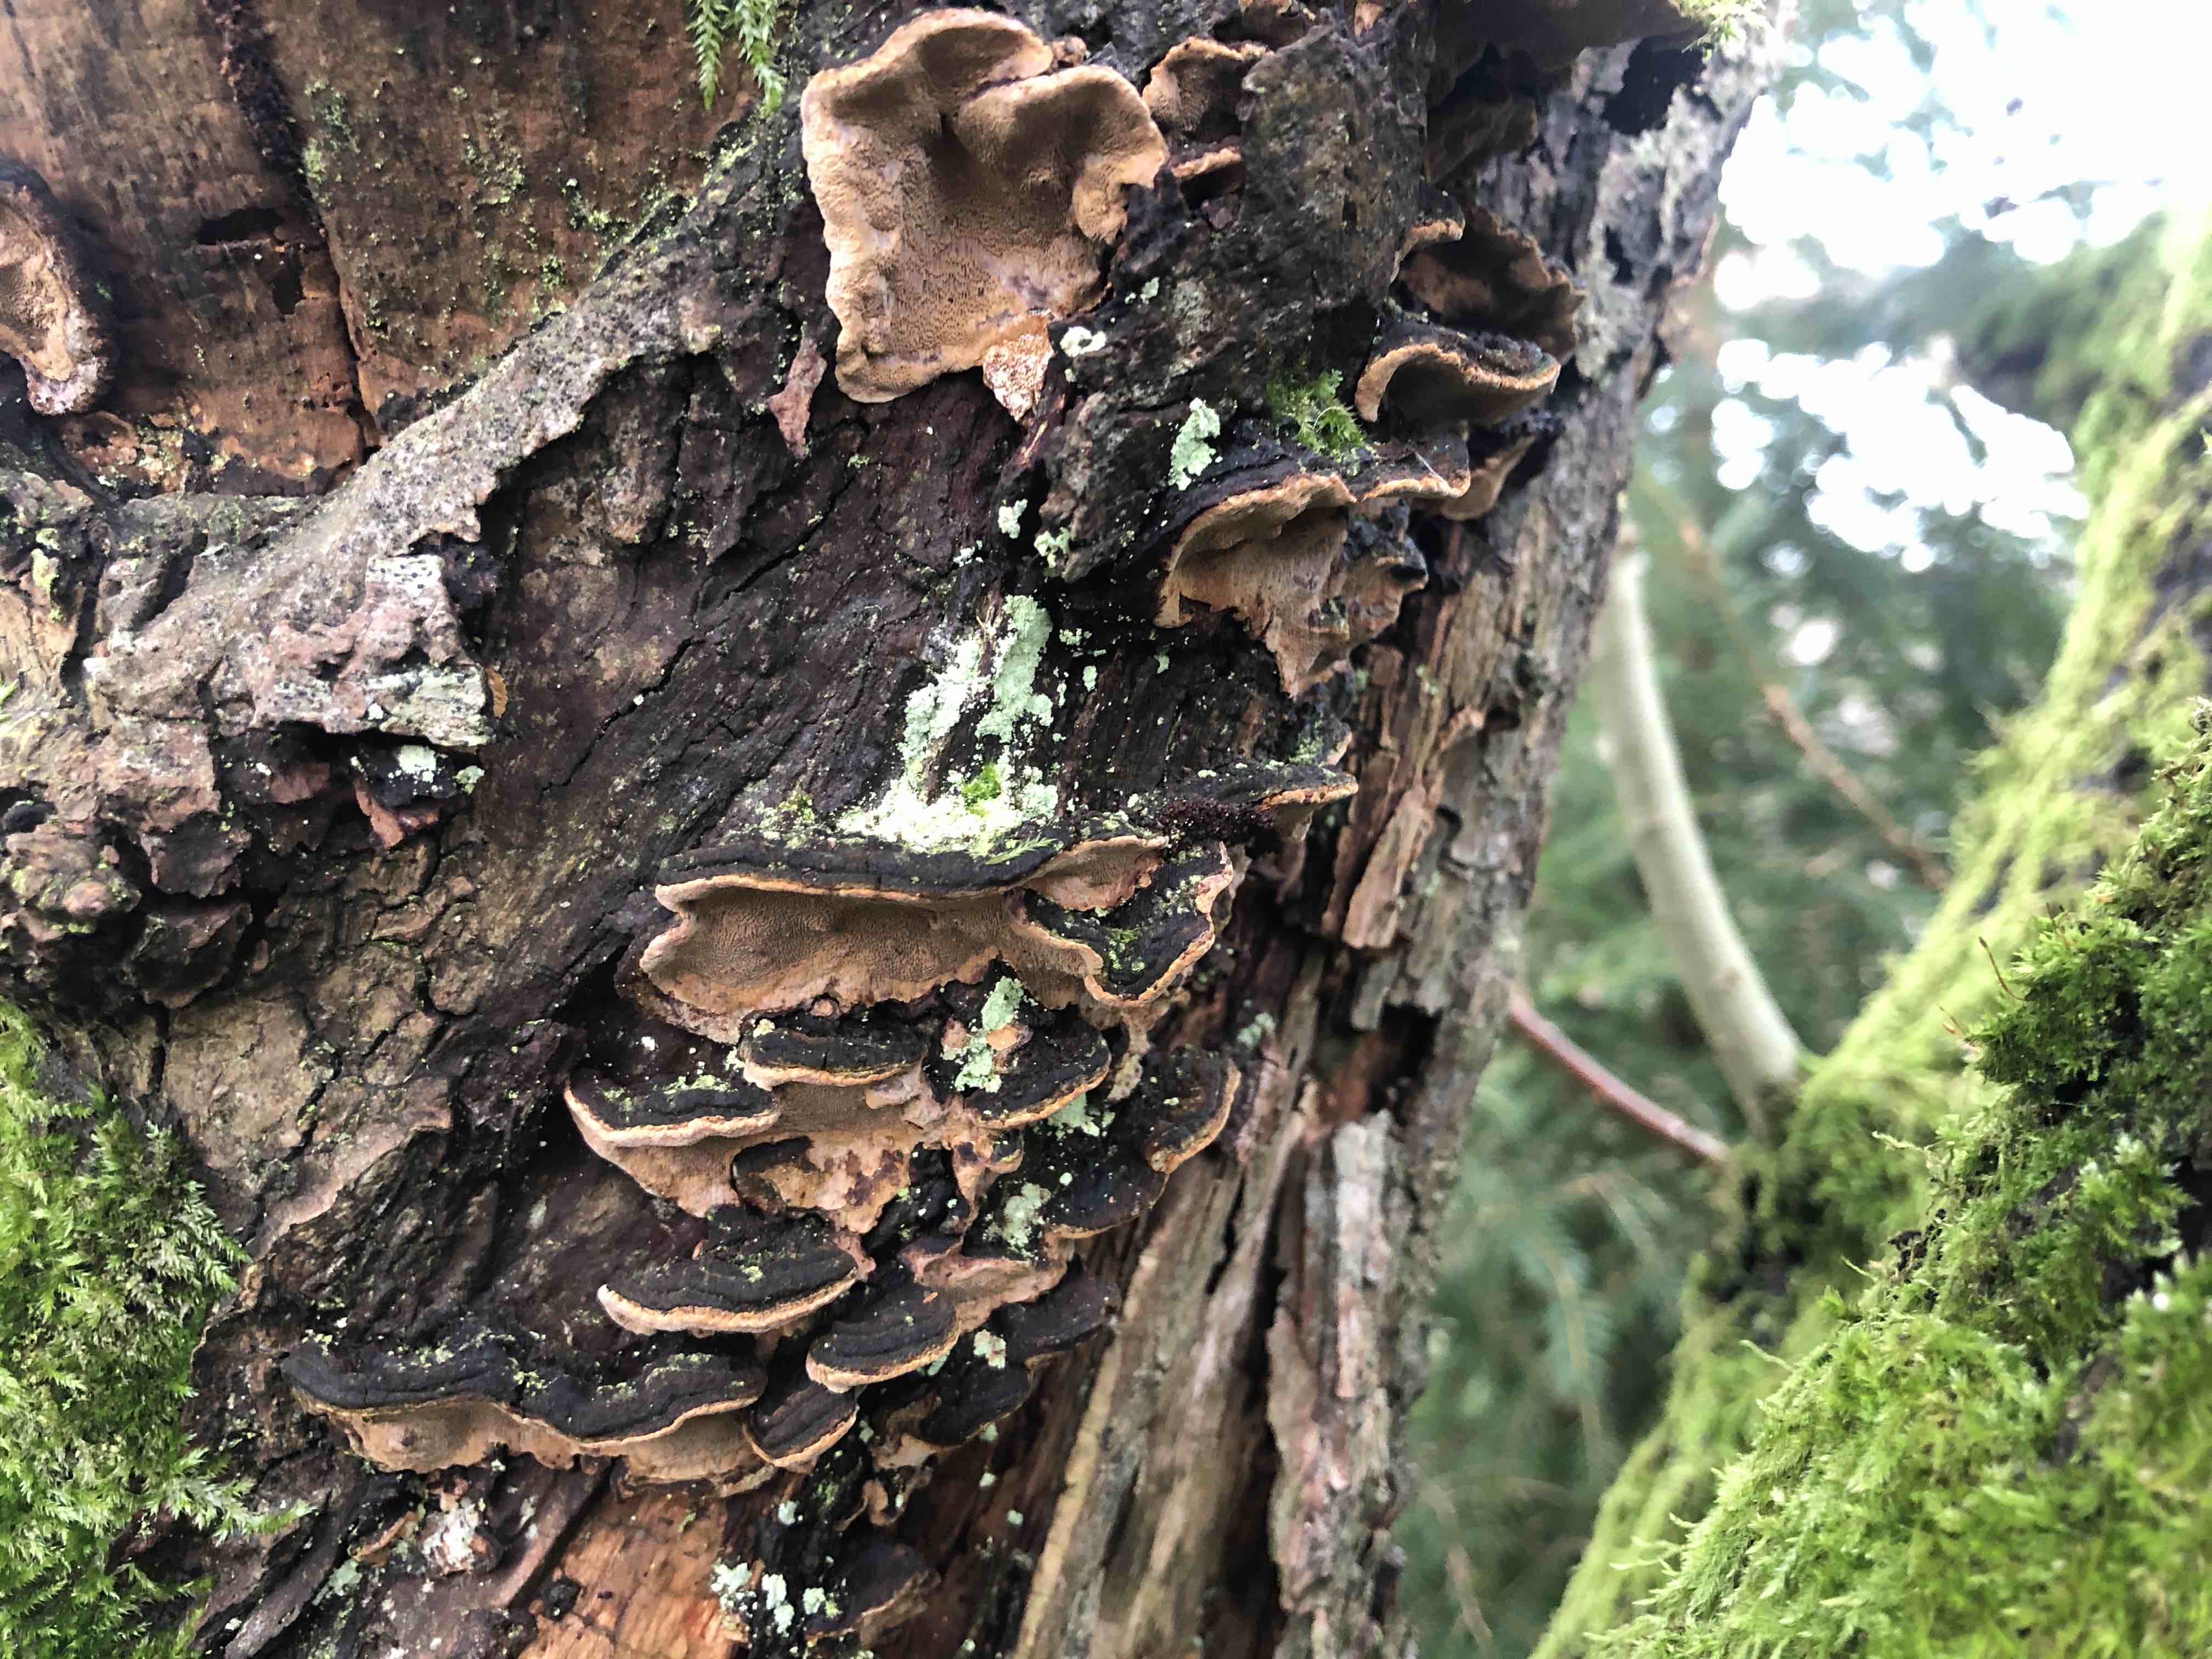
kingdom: Fungi
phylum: Basidiomycota
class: Agaricomycetes
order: Hymenochaetales
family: Hymenochaetaceae
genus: Phellinopsis
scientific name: Phellinopsis conchata
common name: pile-ildporesvamp
